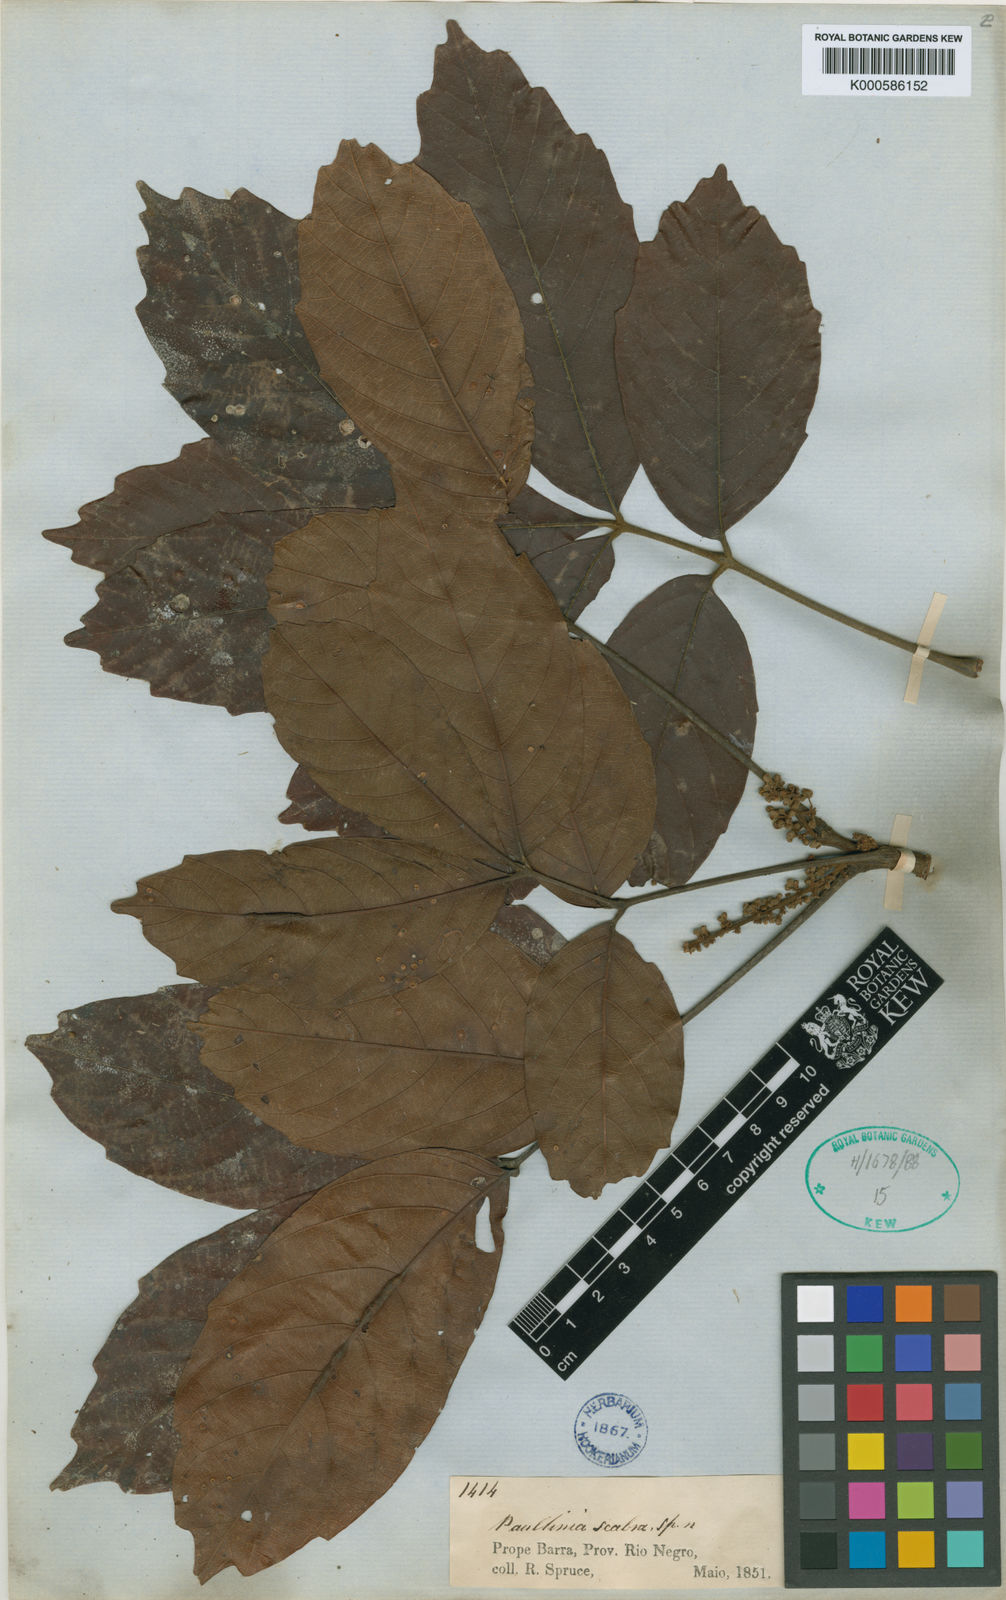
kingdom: Plantae
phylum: Tracheophyta
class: Magnoliopsida
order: Sapindales
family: Sapindaceae
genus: Paullinia
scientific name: Paullinia scabra
